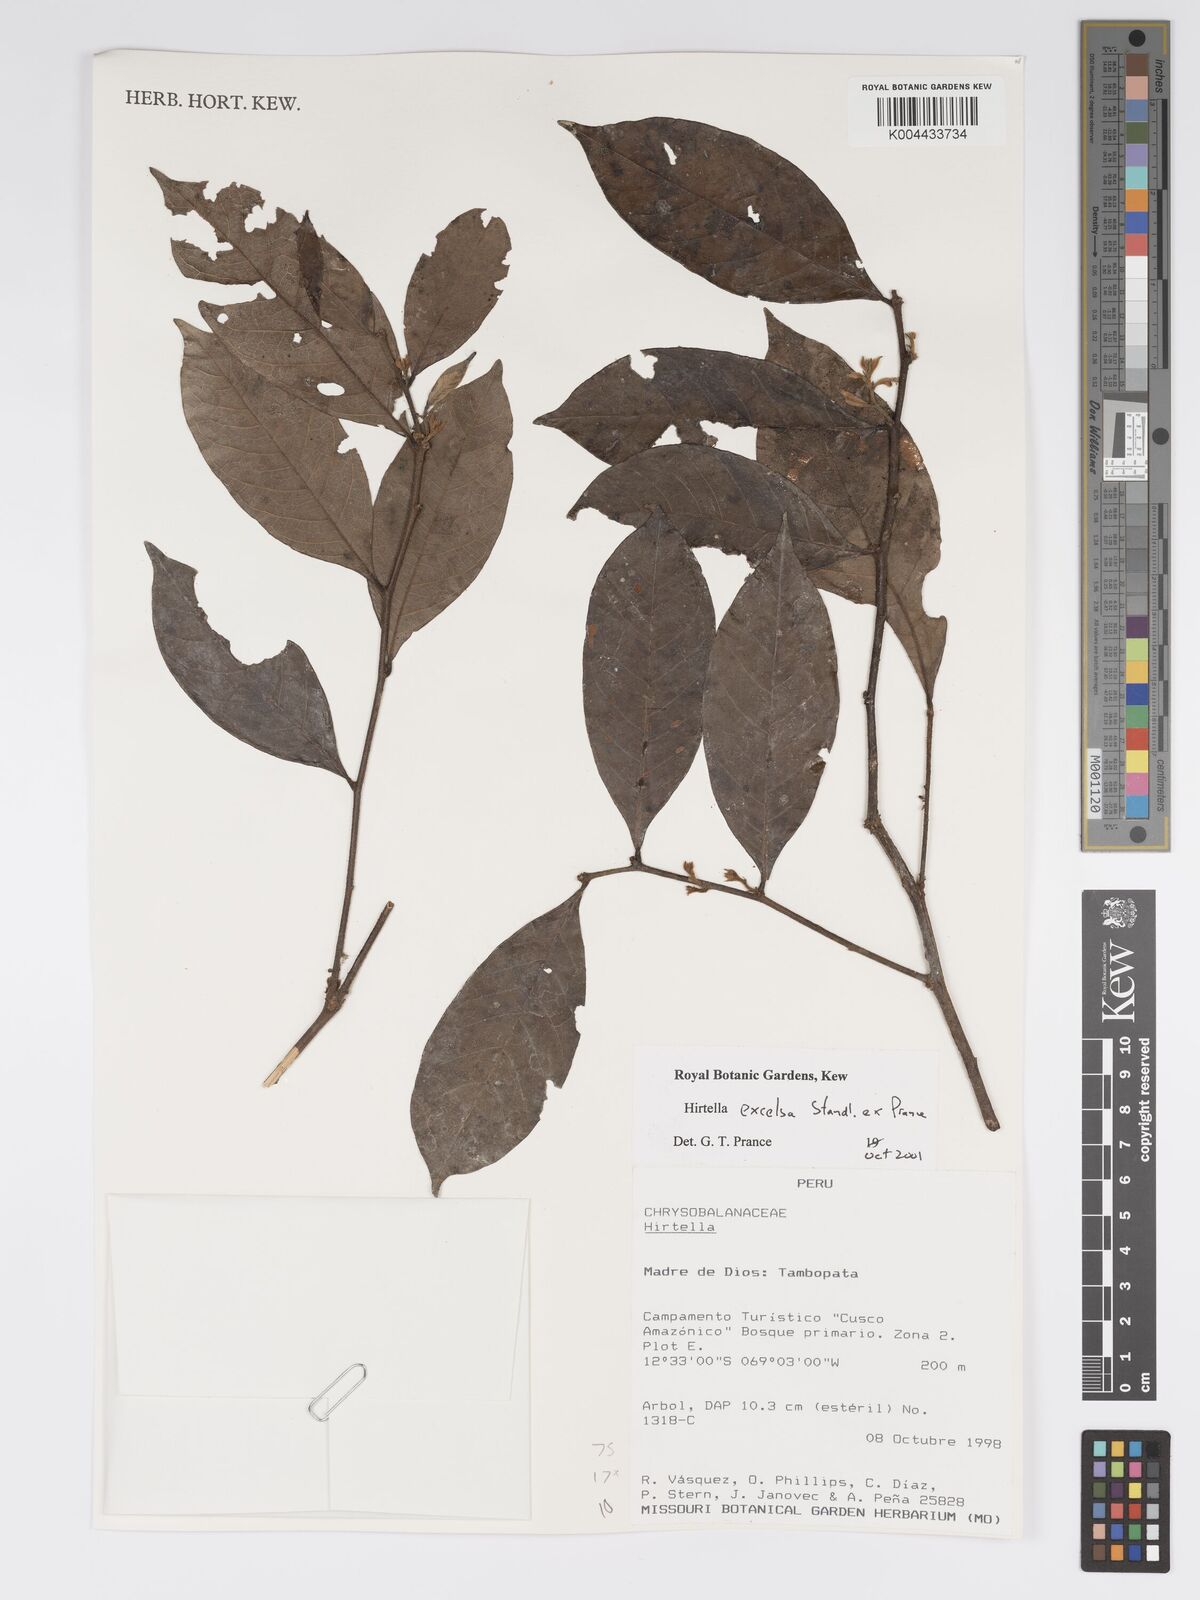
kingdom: Plantae
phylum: Tracheophyta
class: Magnoliopsida
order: Malpighiales
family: Chrysobalanaceae
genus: Hirtella
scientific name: Hirtella excelsa
